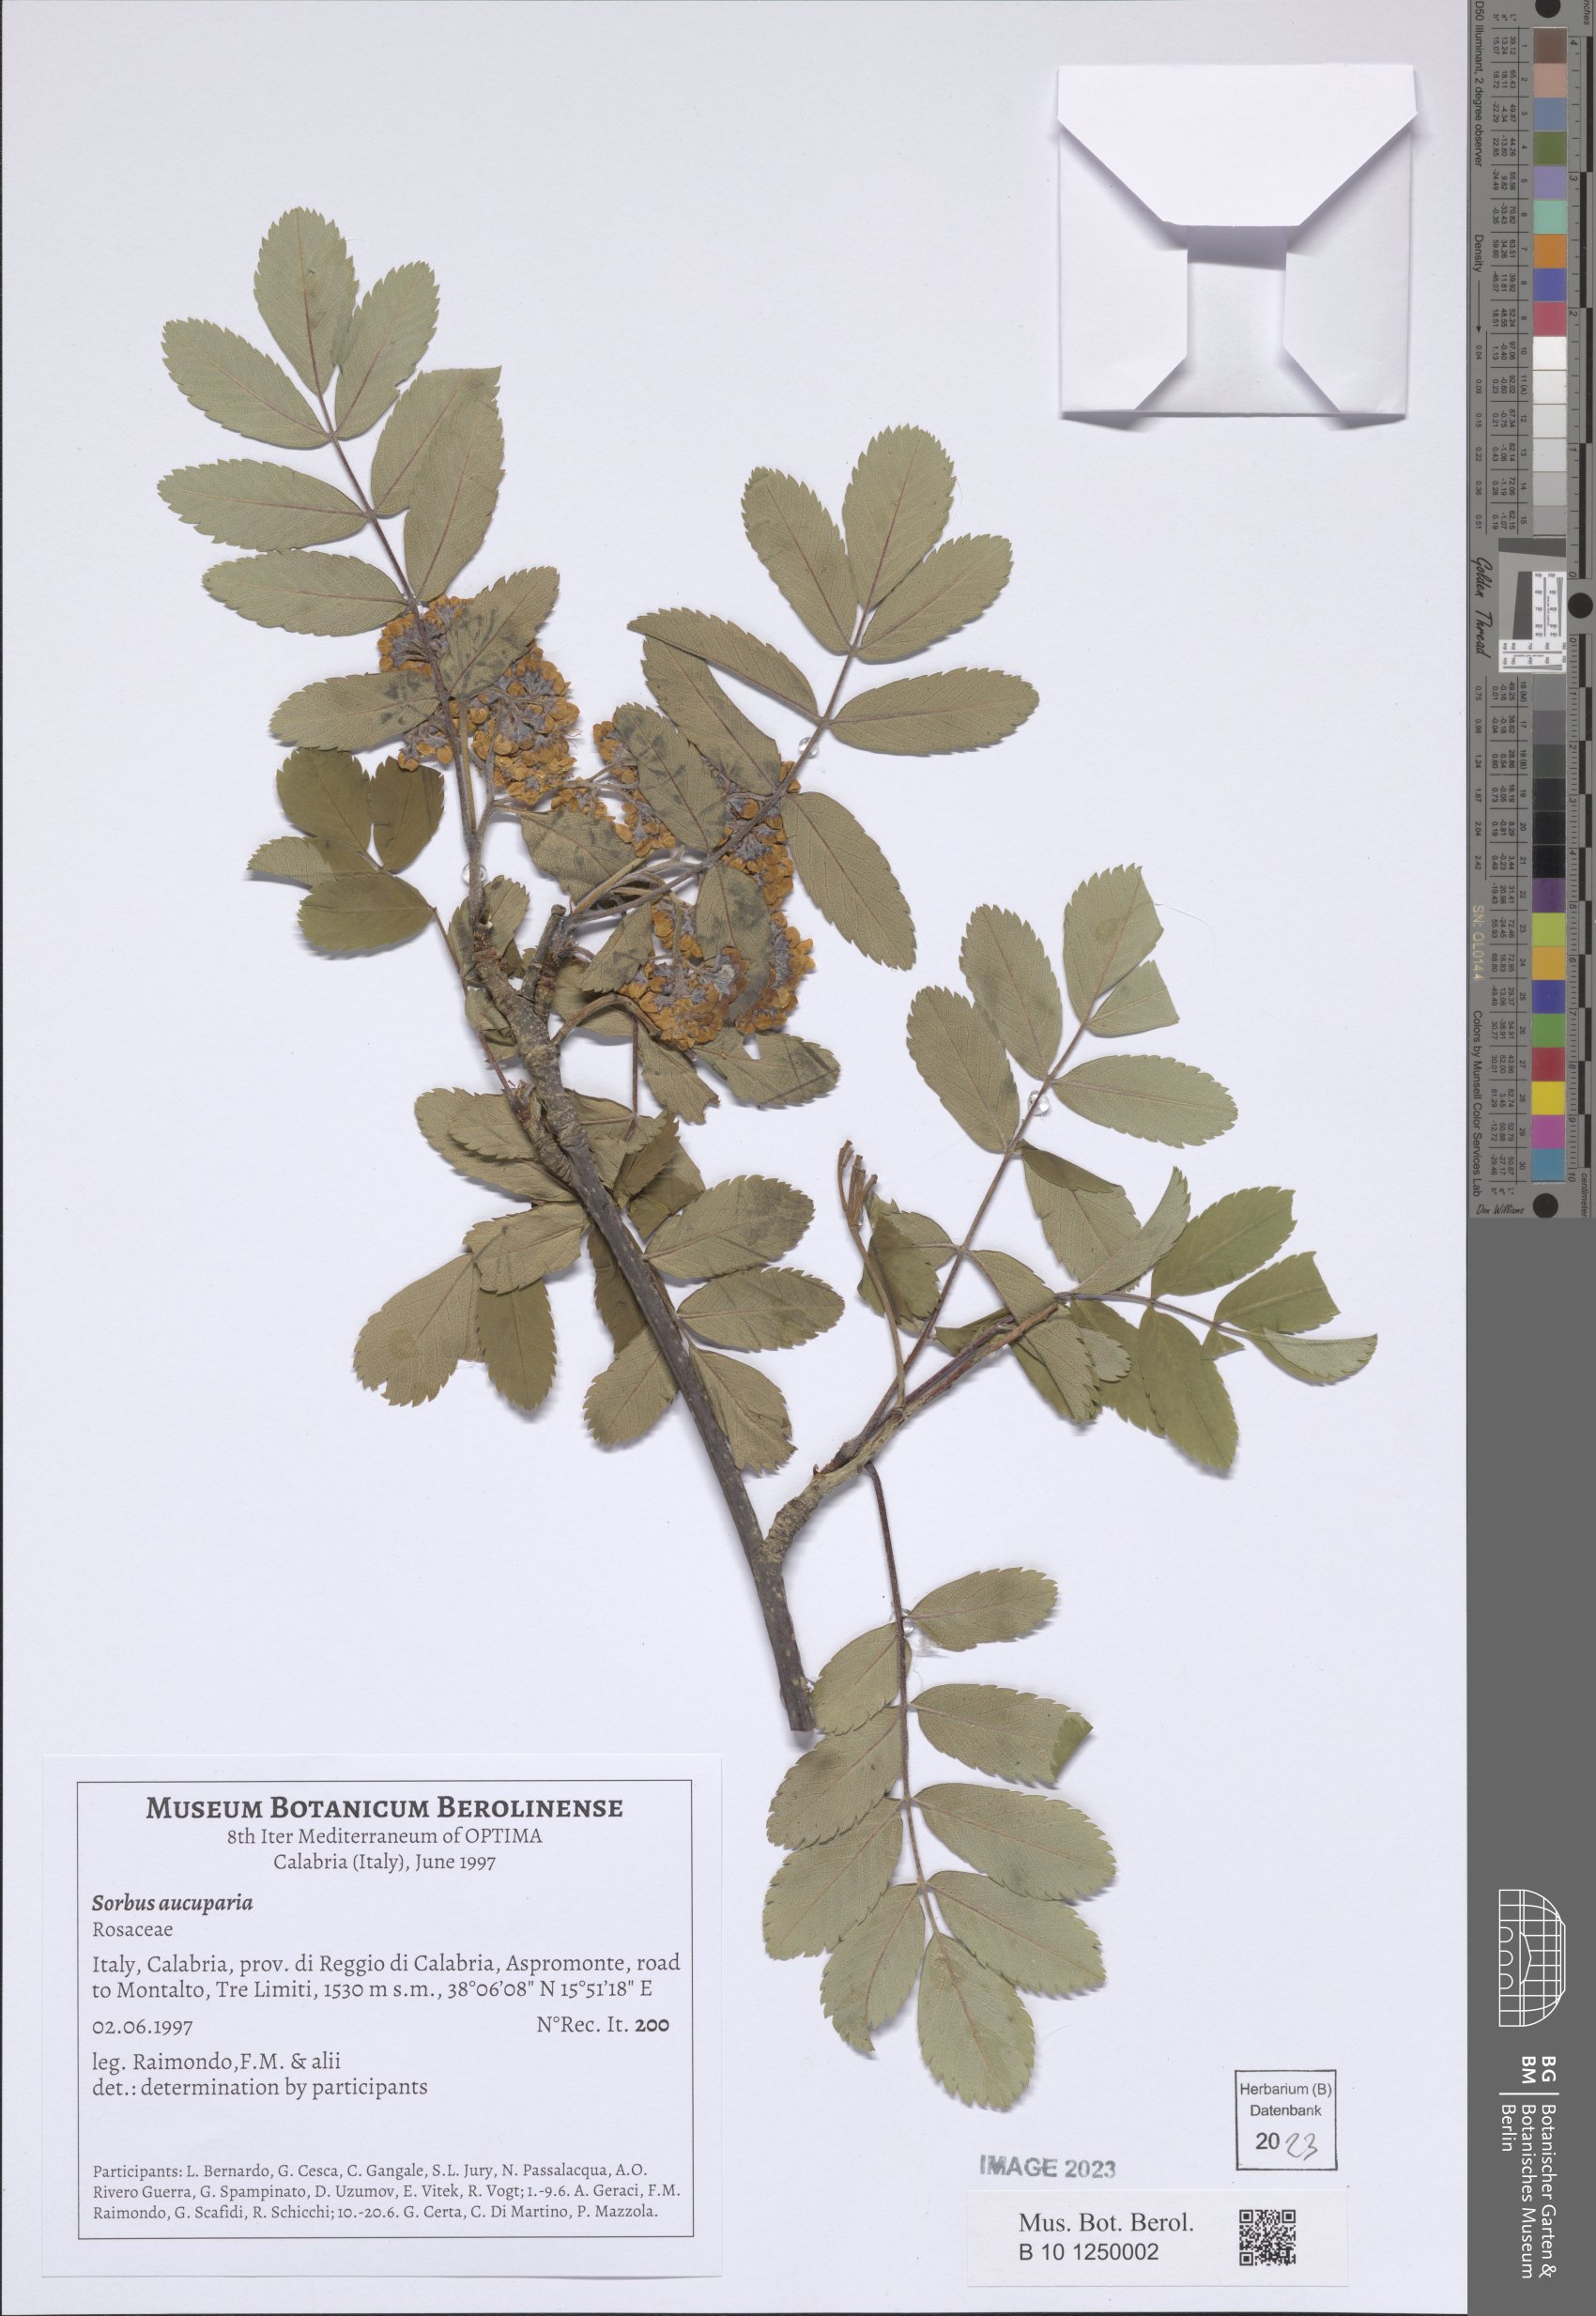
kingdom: Plantae
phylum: Tracheophyta
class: Magnoliopsida
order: Rosales
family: Rosaceae
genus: Sorbus
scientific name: Sorbus aucuparia
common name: Rowan
